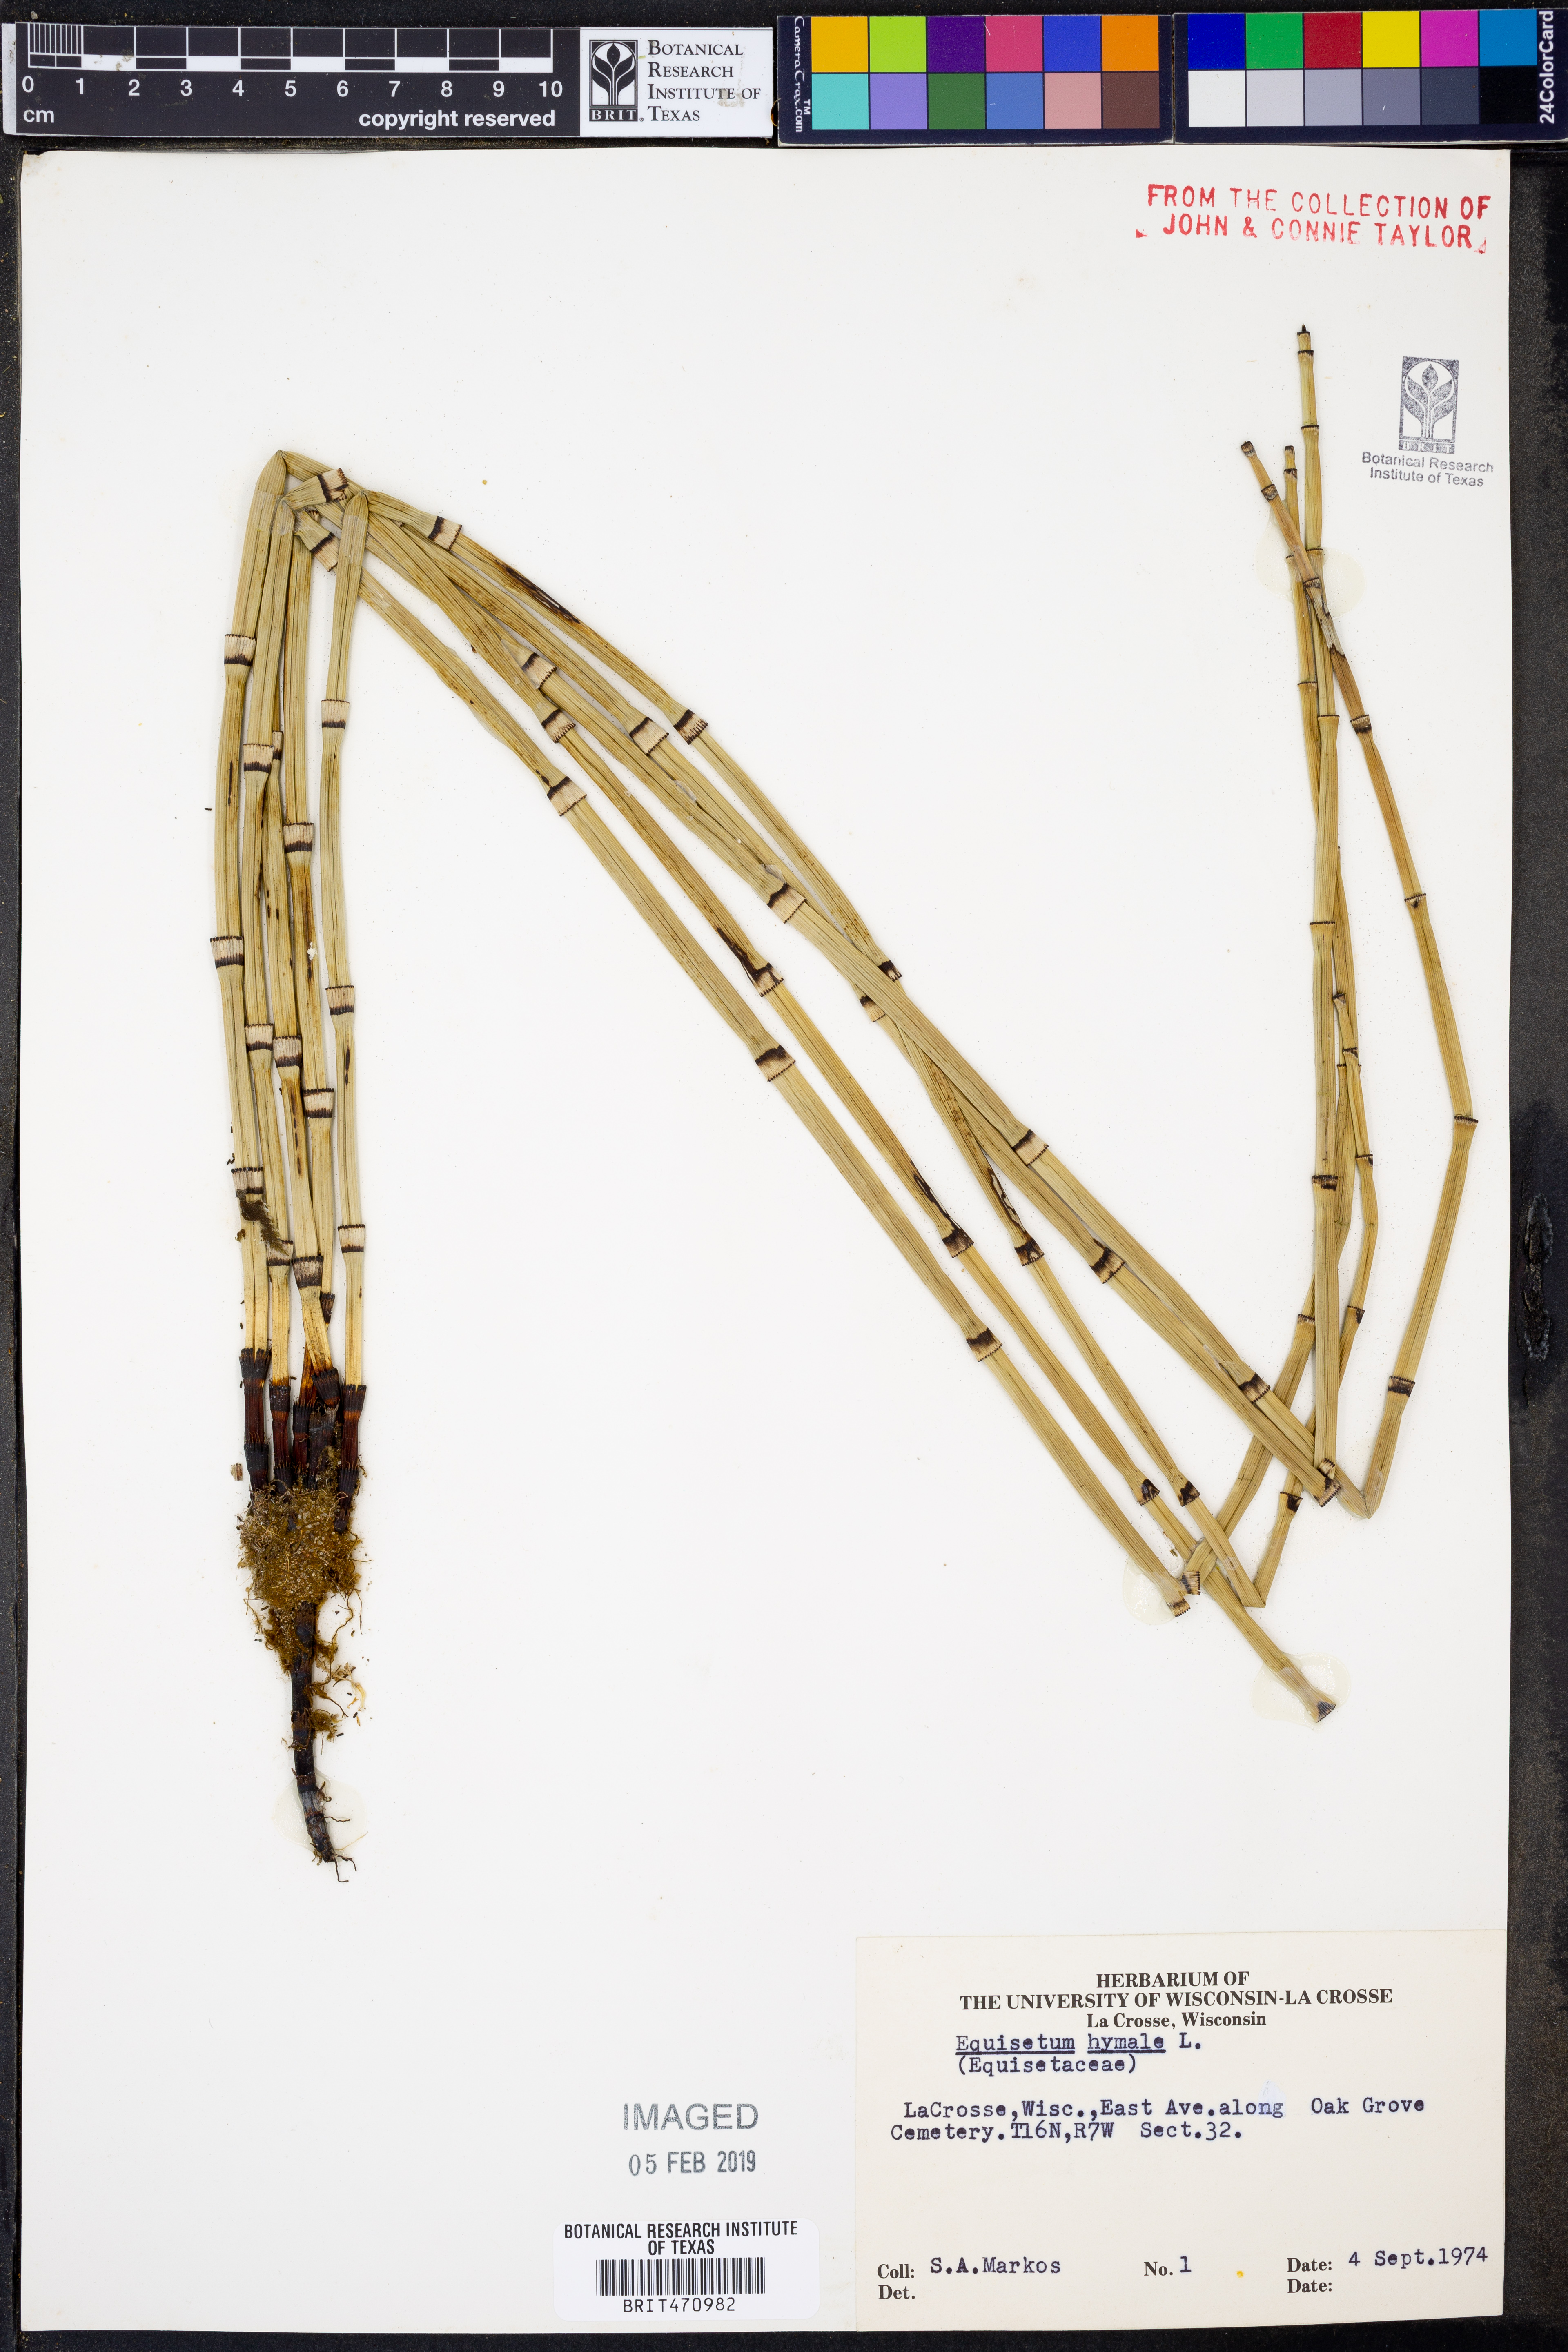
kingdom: Plantae
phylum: Tracheophyta
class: Polypodiopsida
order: Equisetales
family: Equisetaceae
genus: Equisetum
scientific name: Equisetum hyemale
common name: Rough horsetail
